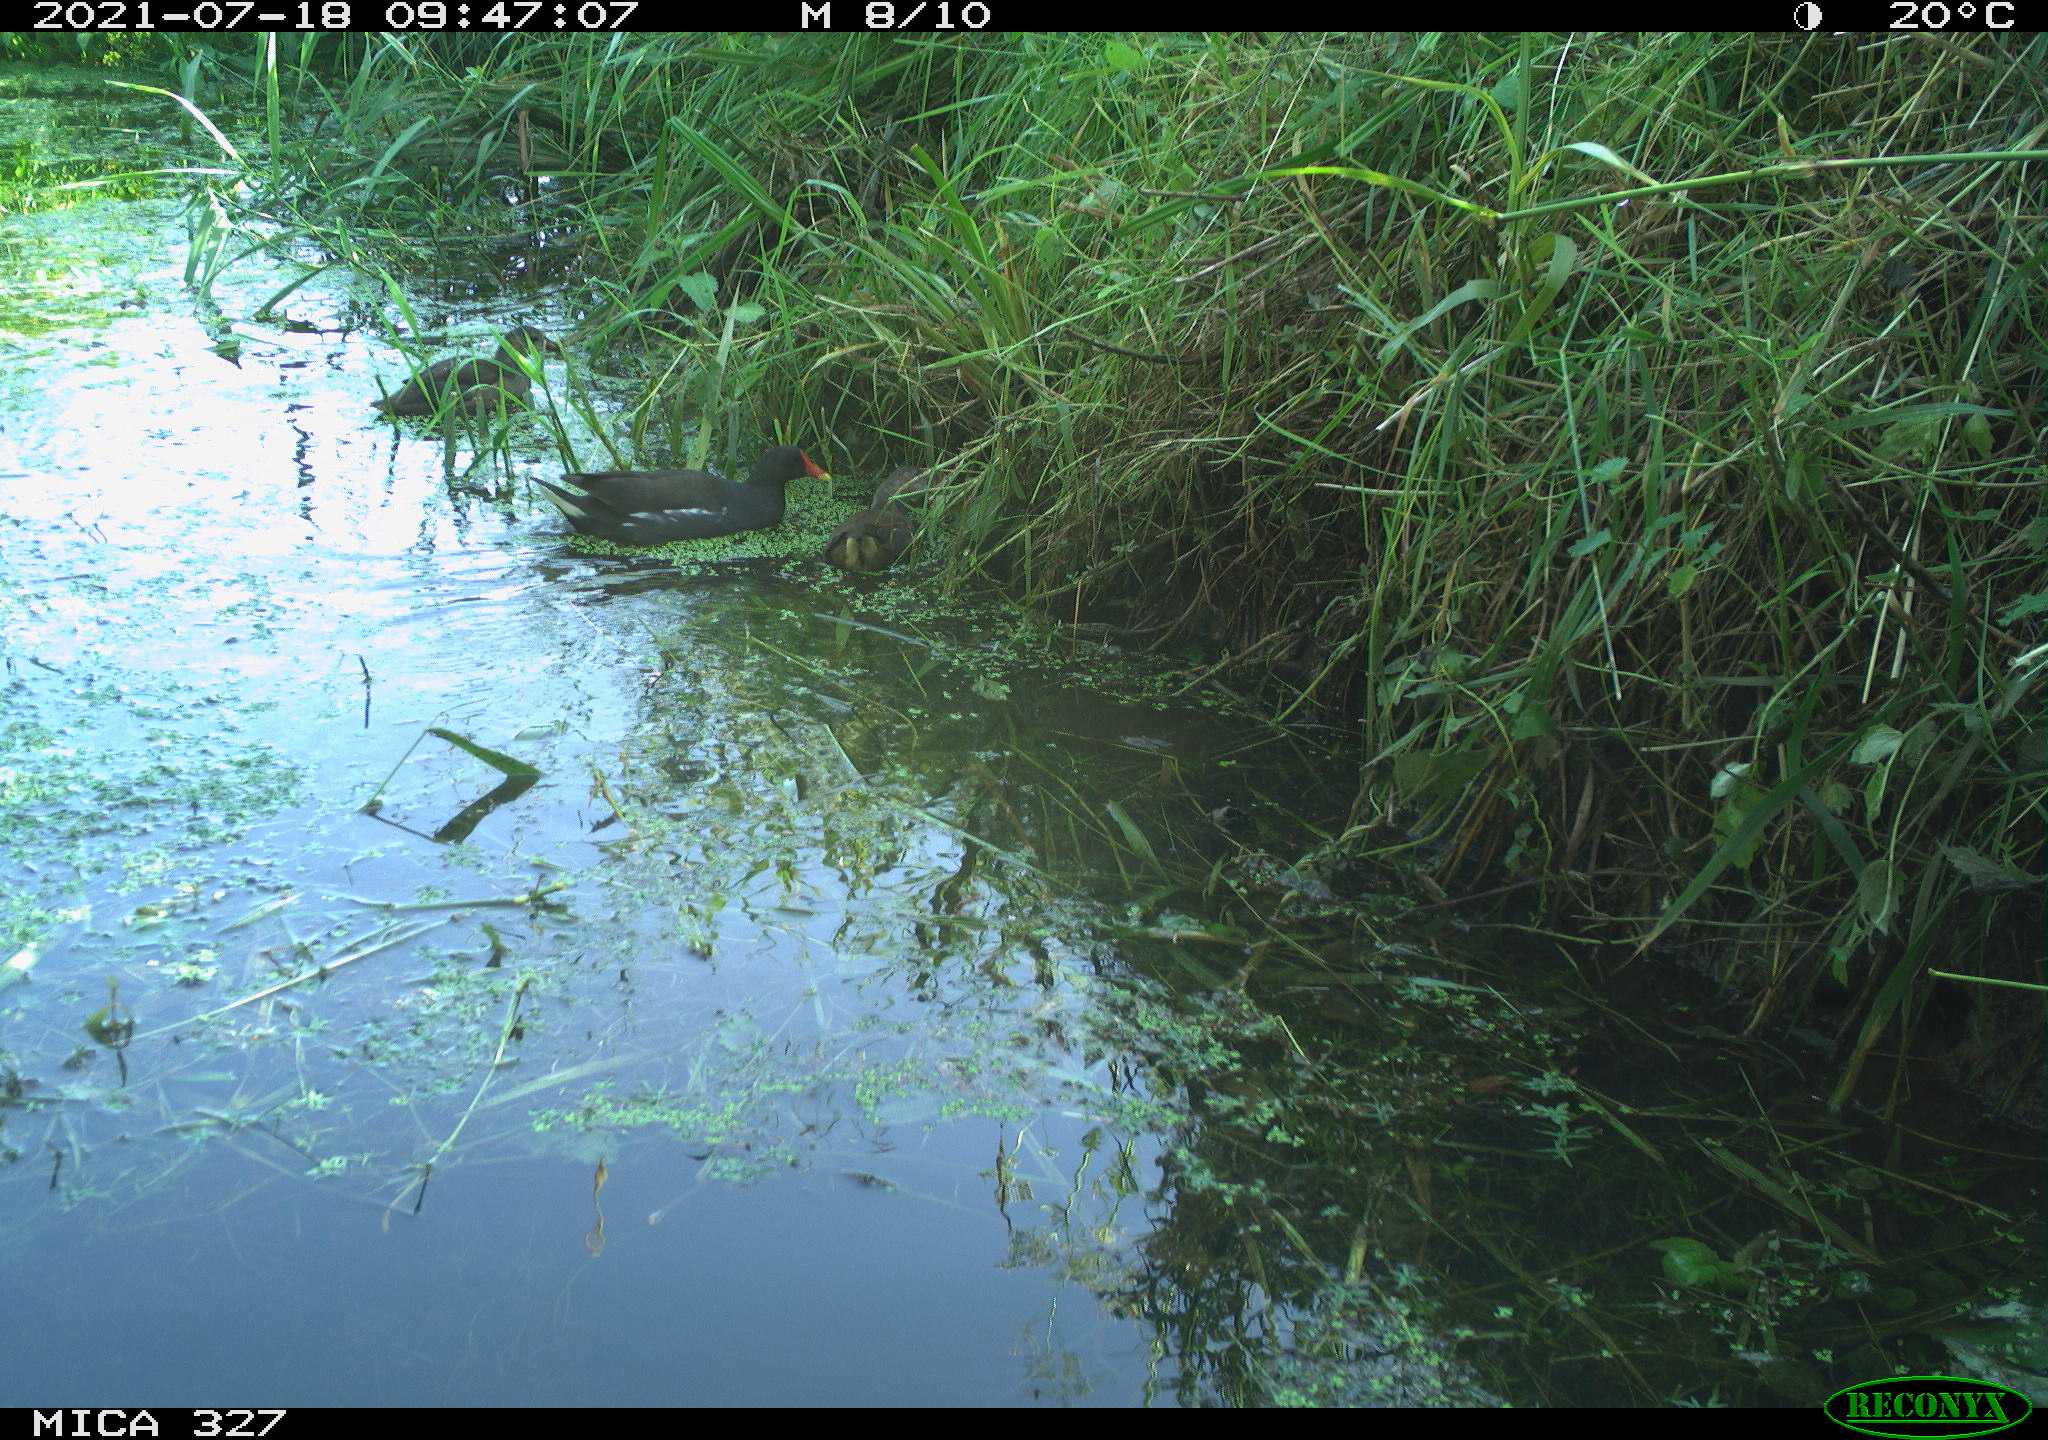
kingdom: Animalia
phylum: Chordata
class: Aves
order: Gruiformes
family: Rallidae
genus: Gallinula
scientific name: Gallinula chloropus
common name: Common moorhen
